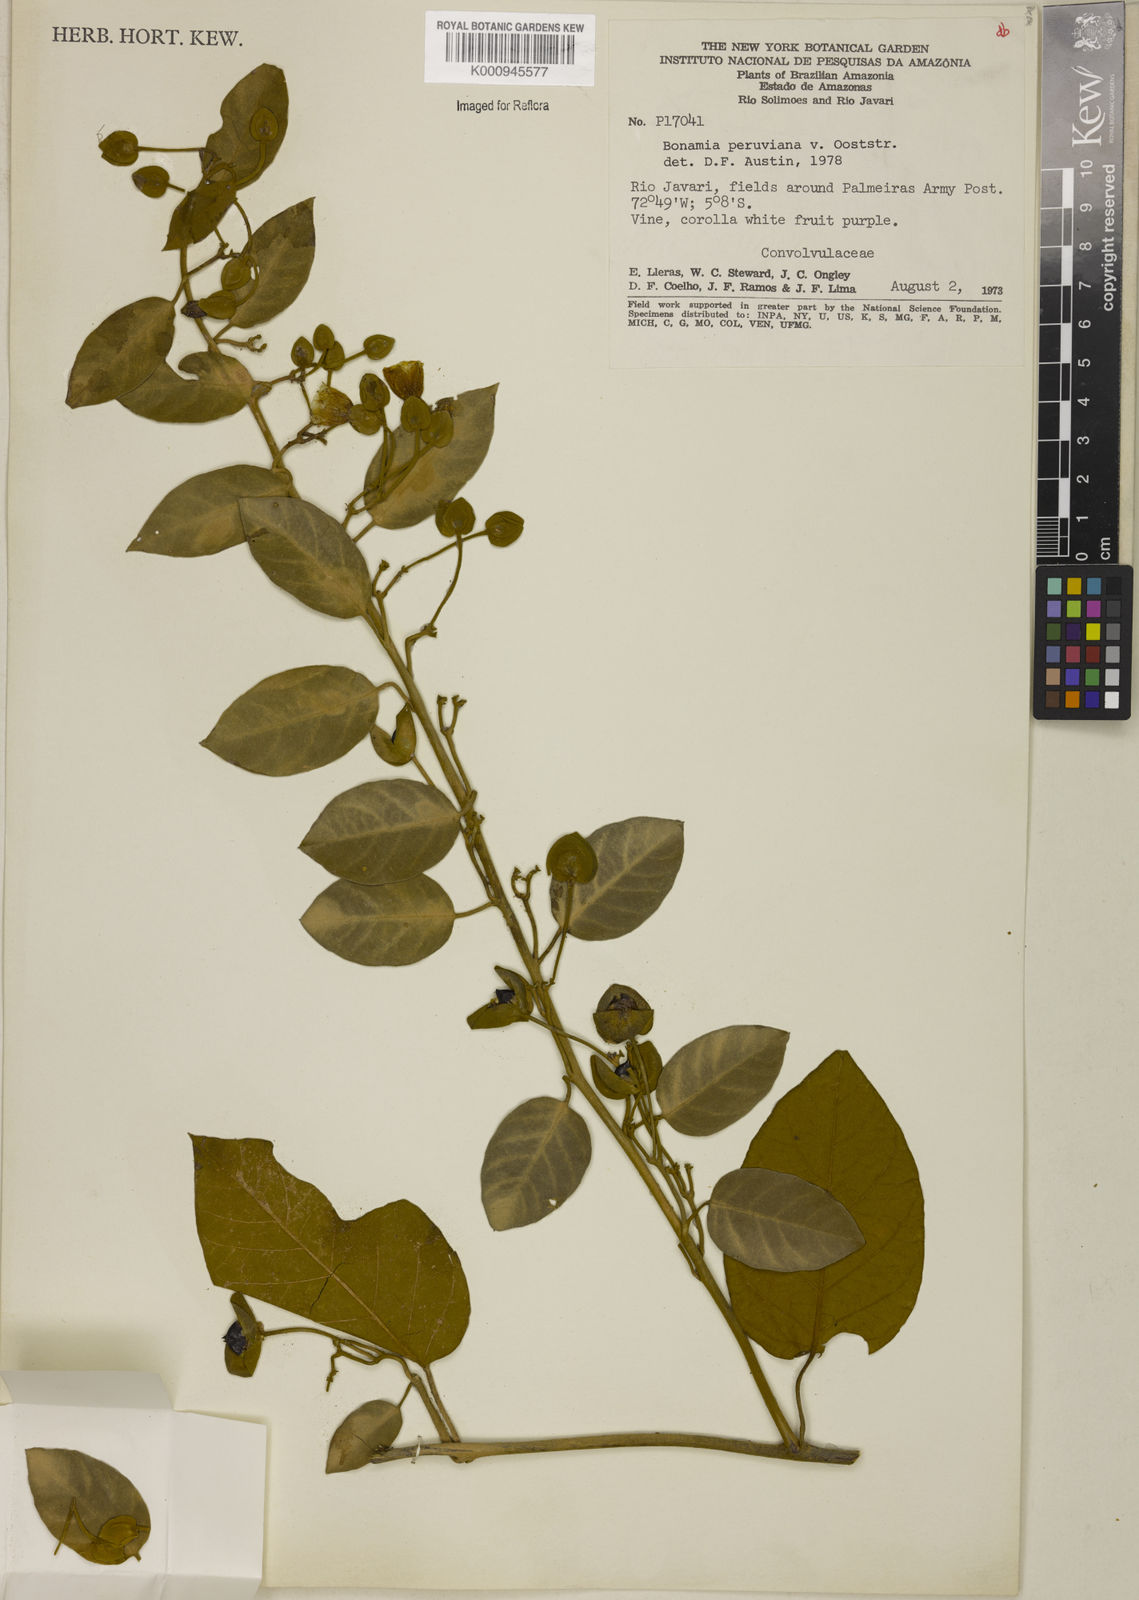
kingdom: Plantae
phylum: Tracheophyta
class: Magnoliopsida
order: Solanales
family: Convolvulaceae
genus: Bonamia
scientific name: Bonamia peruviana
